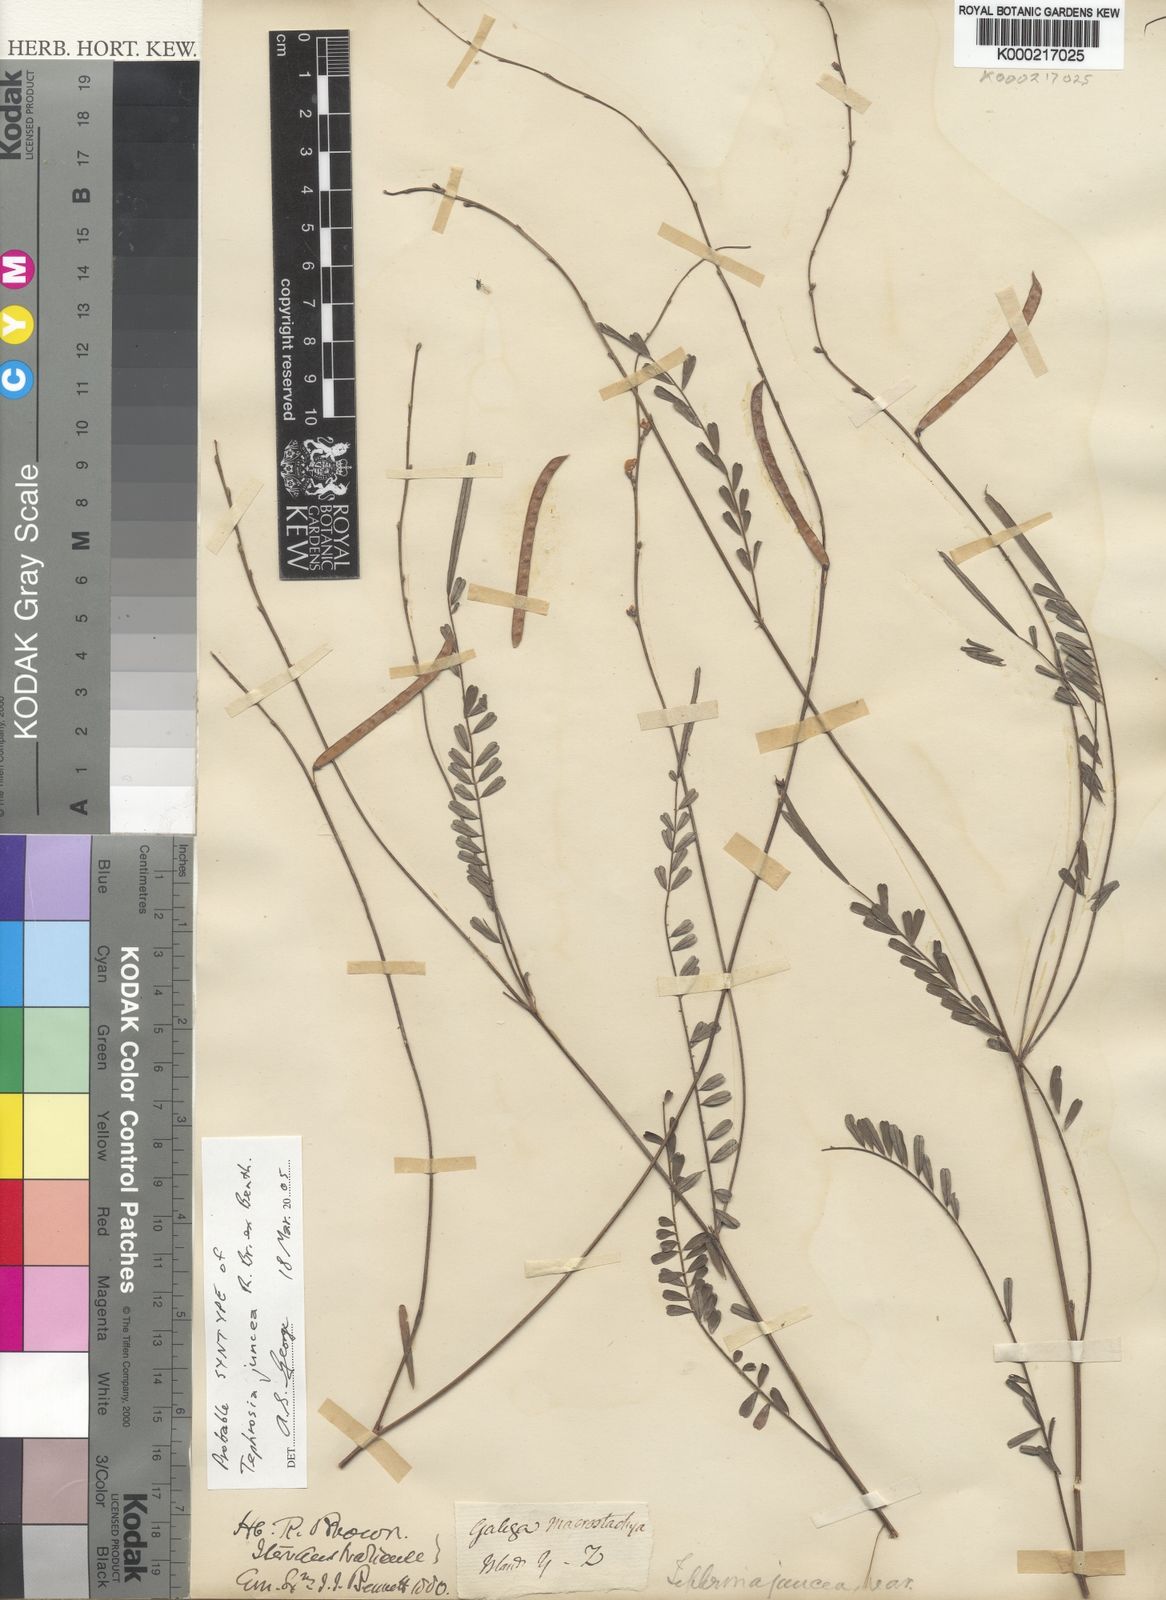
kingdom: Plantae
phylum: Tracheophyta
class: Magnoliopsida
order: Fabales
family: Fabaceae
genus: Tephrosia
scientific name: Tephrosia juncea
